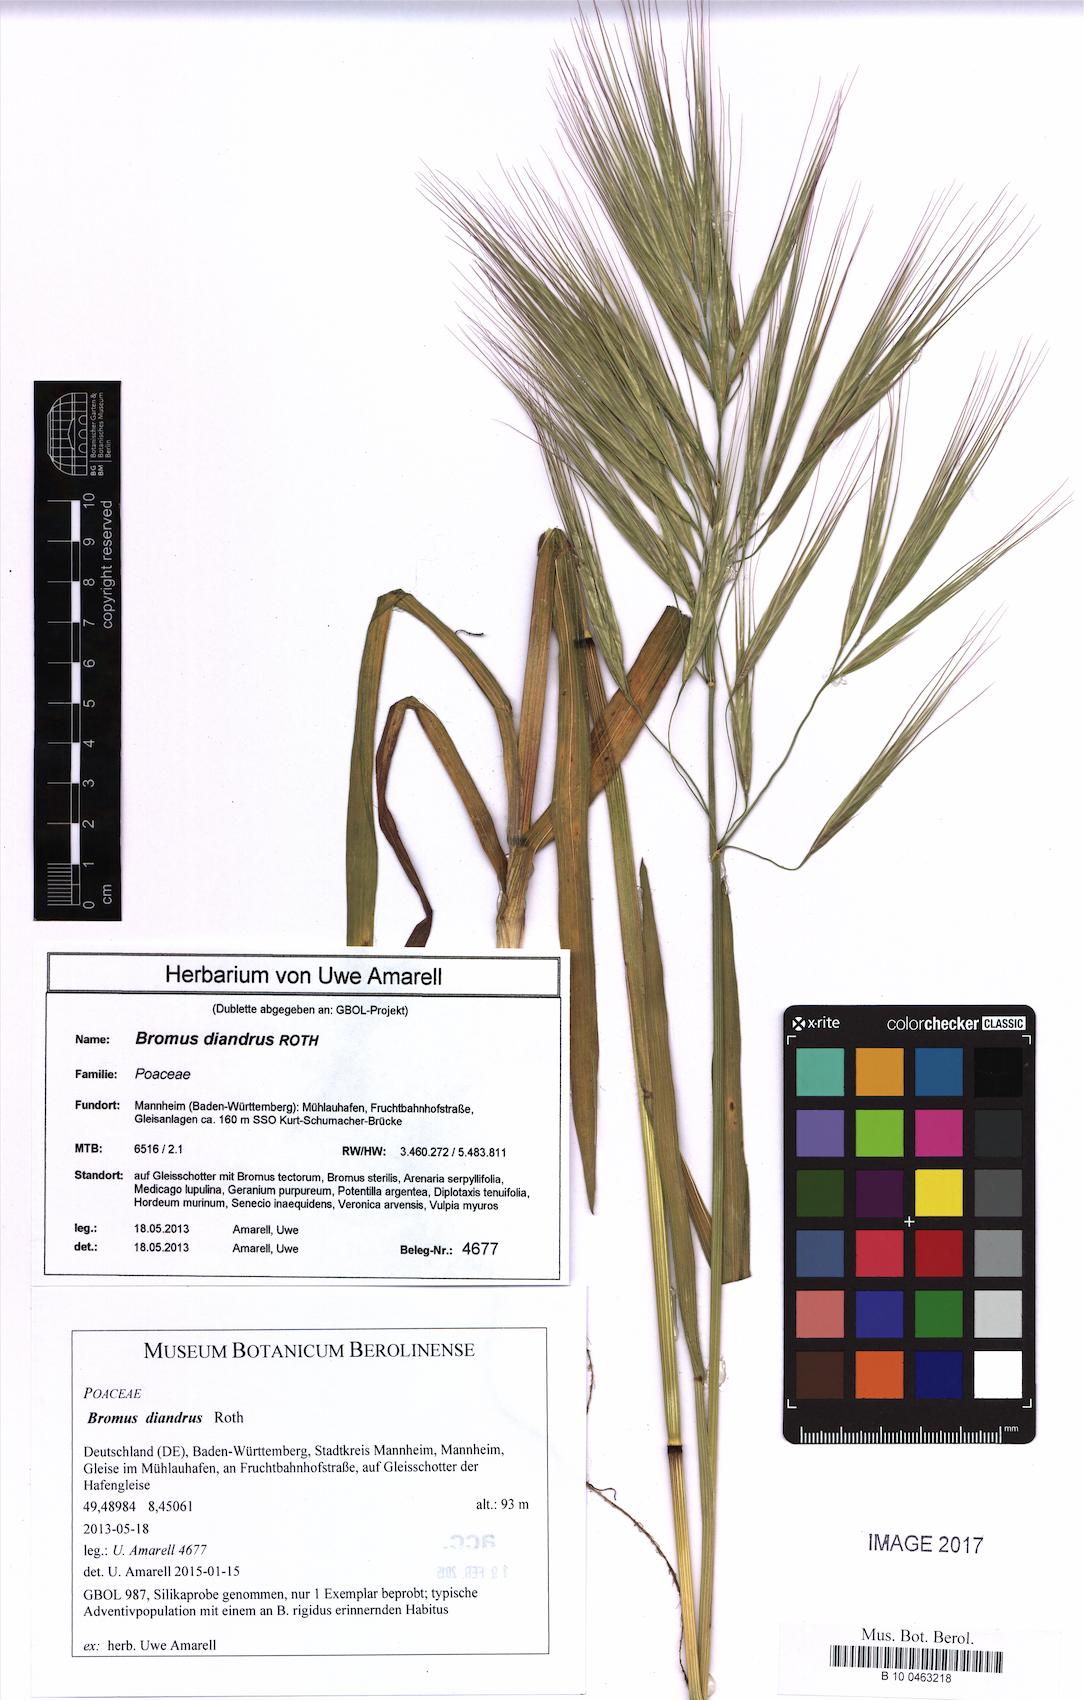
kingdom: Plantae
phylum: Tracheophyta
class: Liliopsida
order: Poales
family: Poaceae
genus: Bromus
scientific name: Bromus diandrus
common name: Ripgut brome
